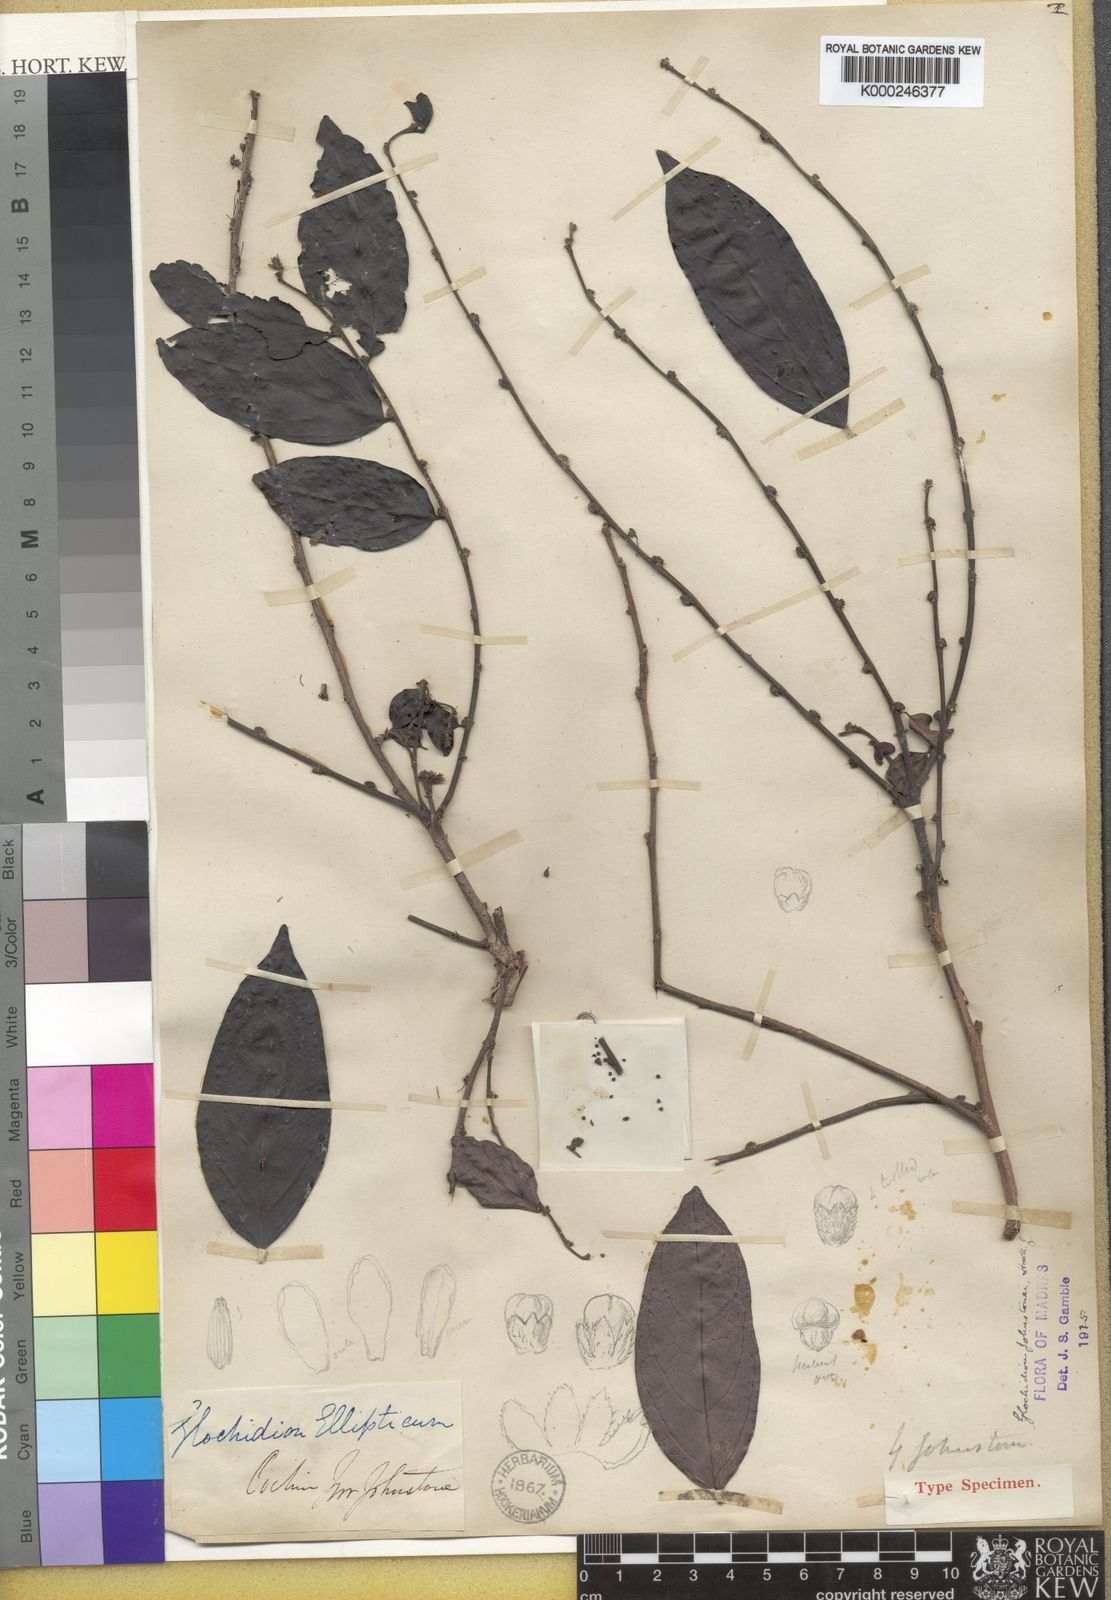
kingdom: Plantae
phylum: Tracheophyta
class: Magnoliopsida
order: Malpighiales
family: Phyllanthaceae
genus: Glochidion
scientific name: Glochidion hohenackeri
